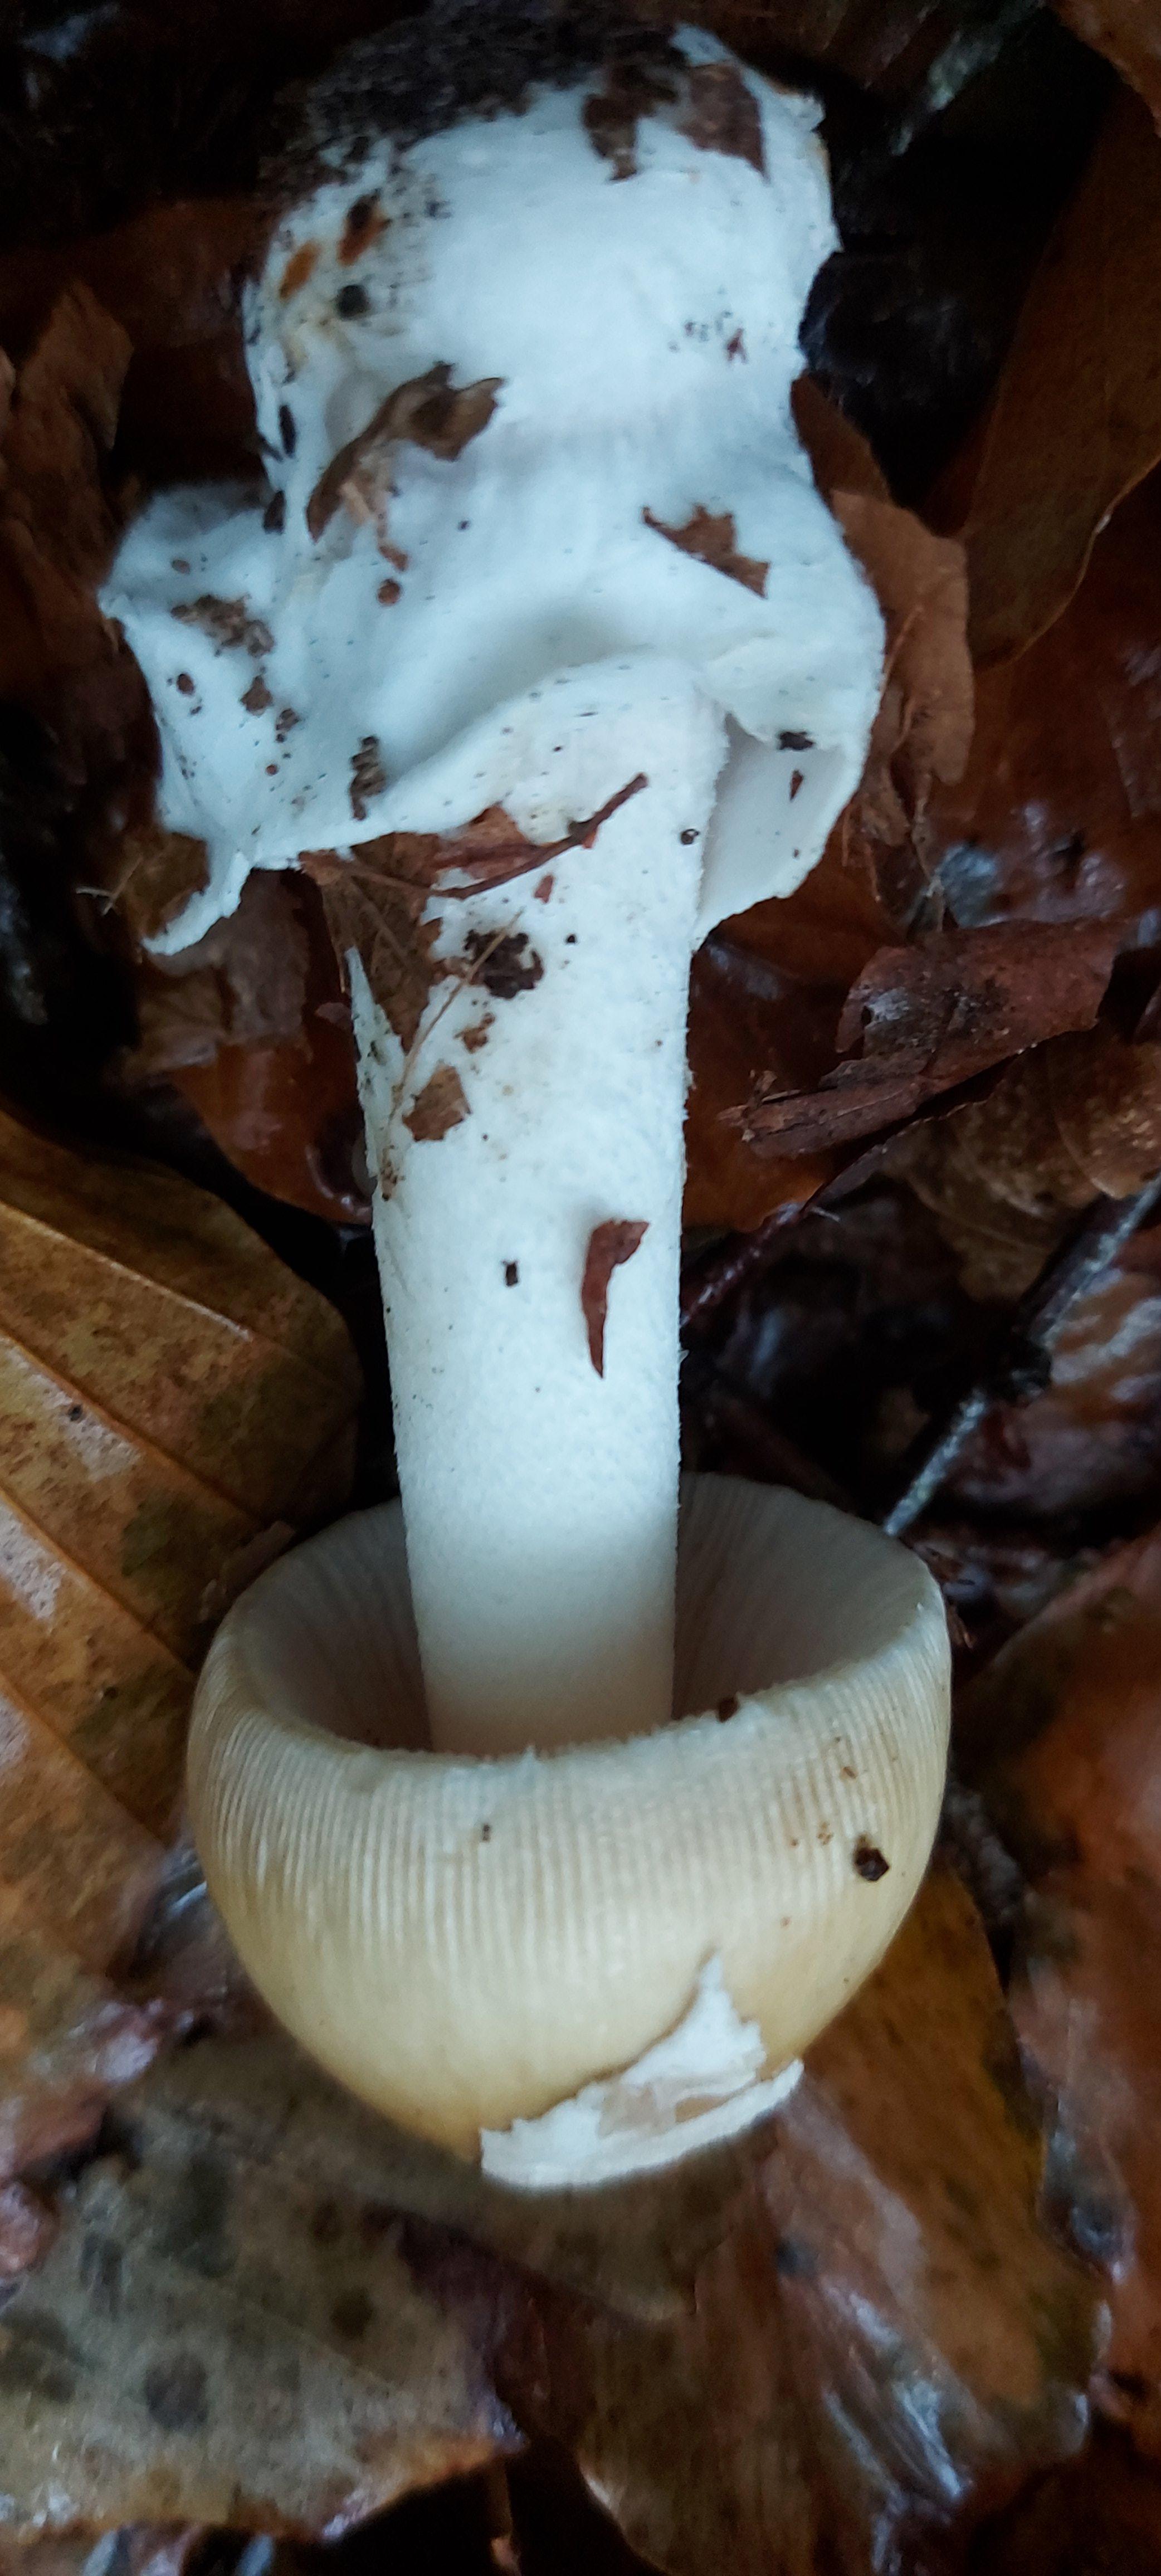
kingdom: Fungi
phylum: Basidiomycota
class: Agaricomycetes
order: Agaricales
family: Amanitaceae
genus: Amanita
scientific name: Amanita phalloides
